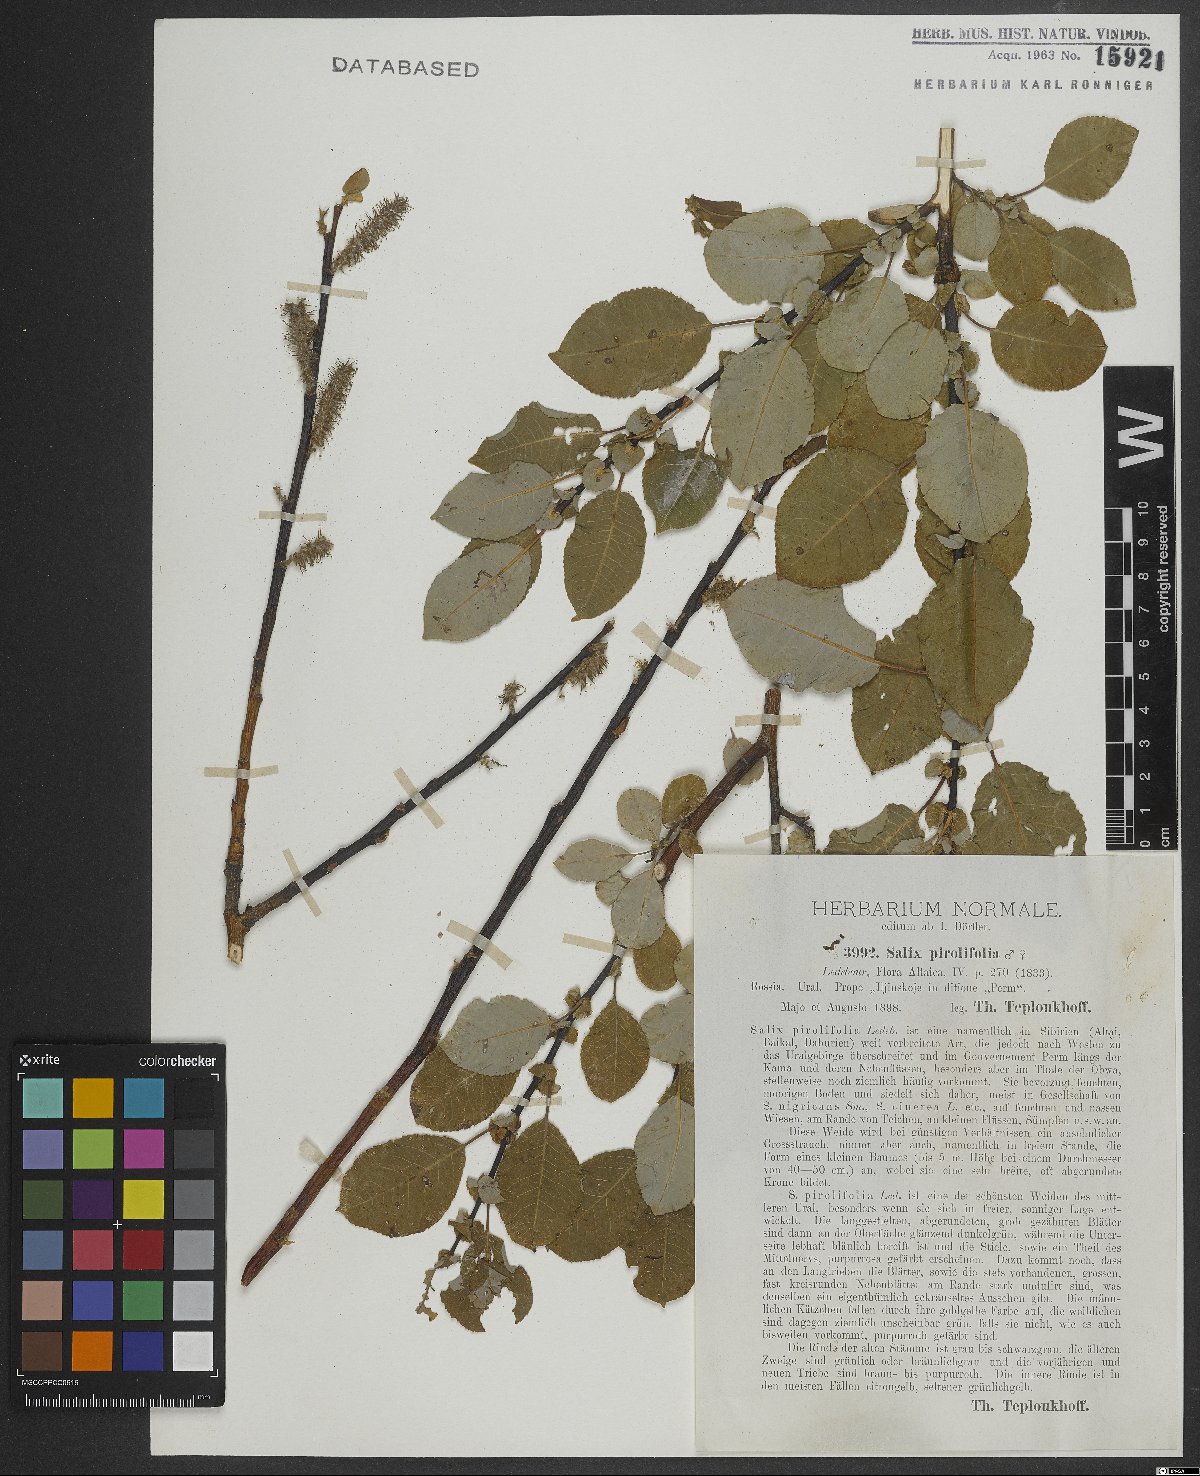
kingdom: Plantae
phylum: Tracheophyta
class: Magnoliopsida
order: Malpighiales
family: Salicaceae
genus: Salix
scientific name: Salix pyrolifolia
